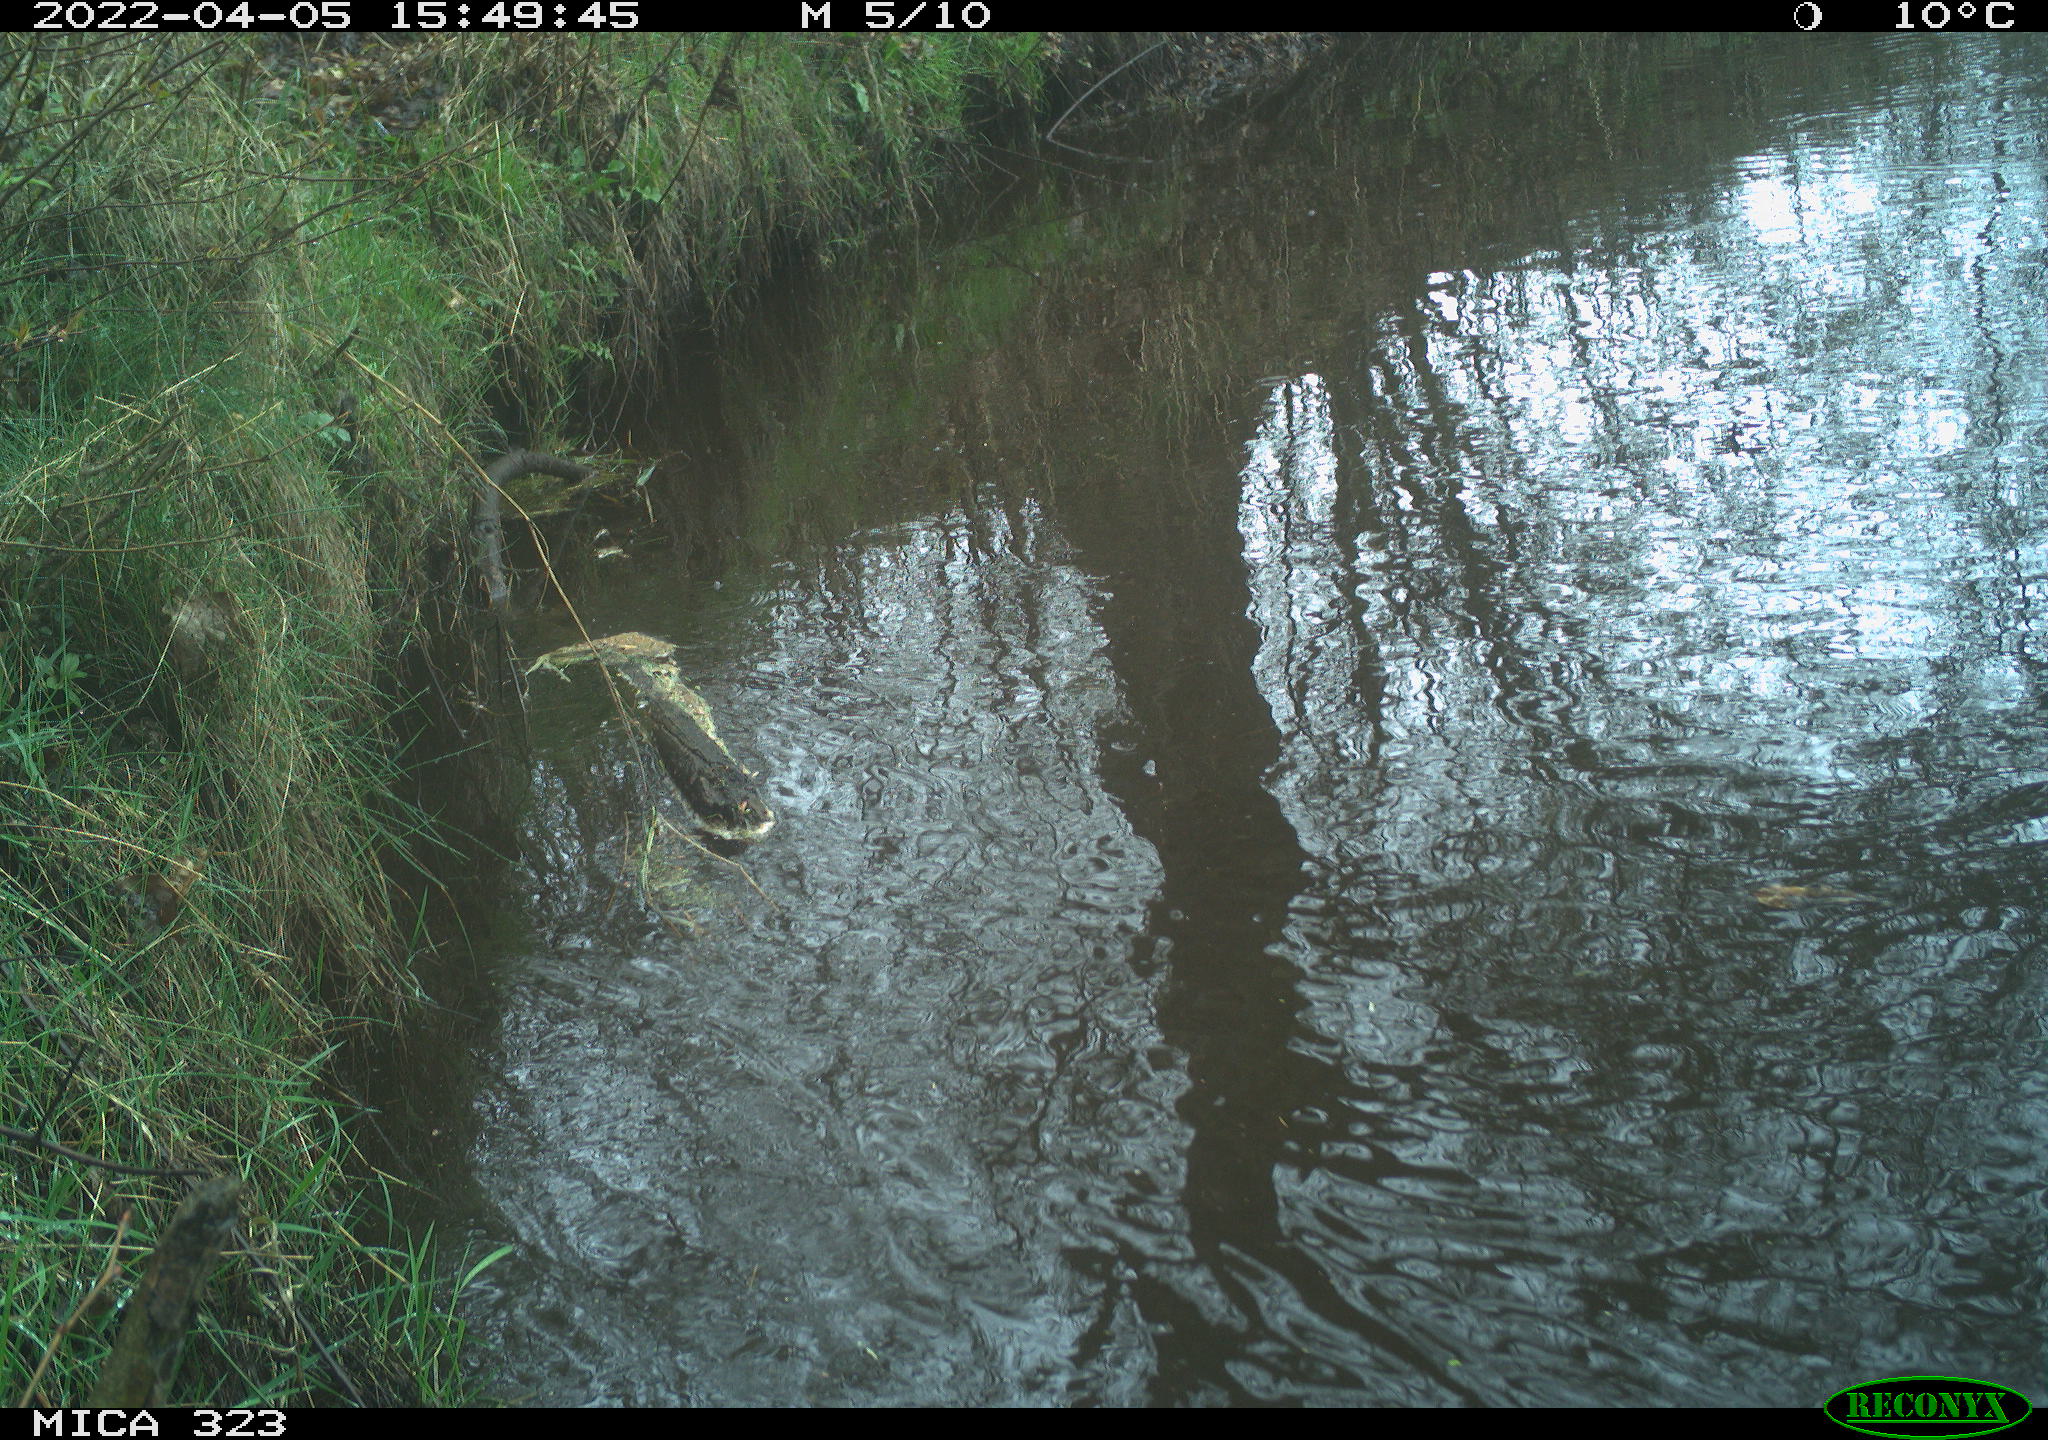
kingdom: Animalia
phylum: Chordata
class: Aves
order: Anseriformes
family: Anatidae
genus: Anas
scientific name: Anas
